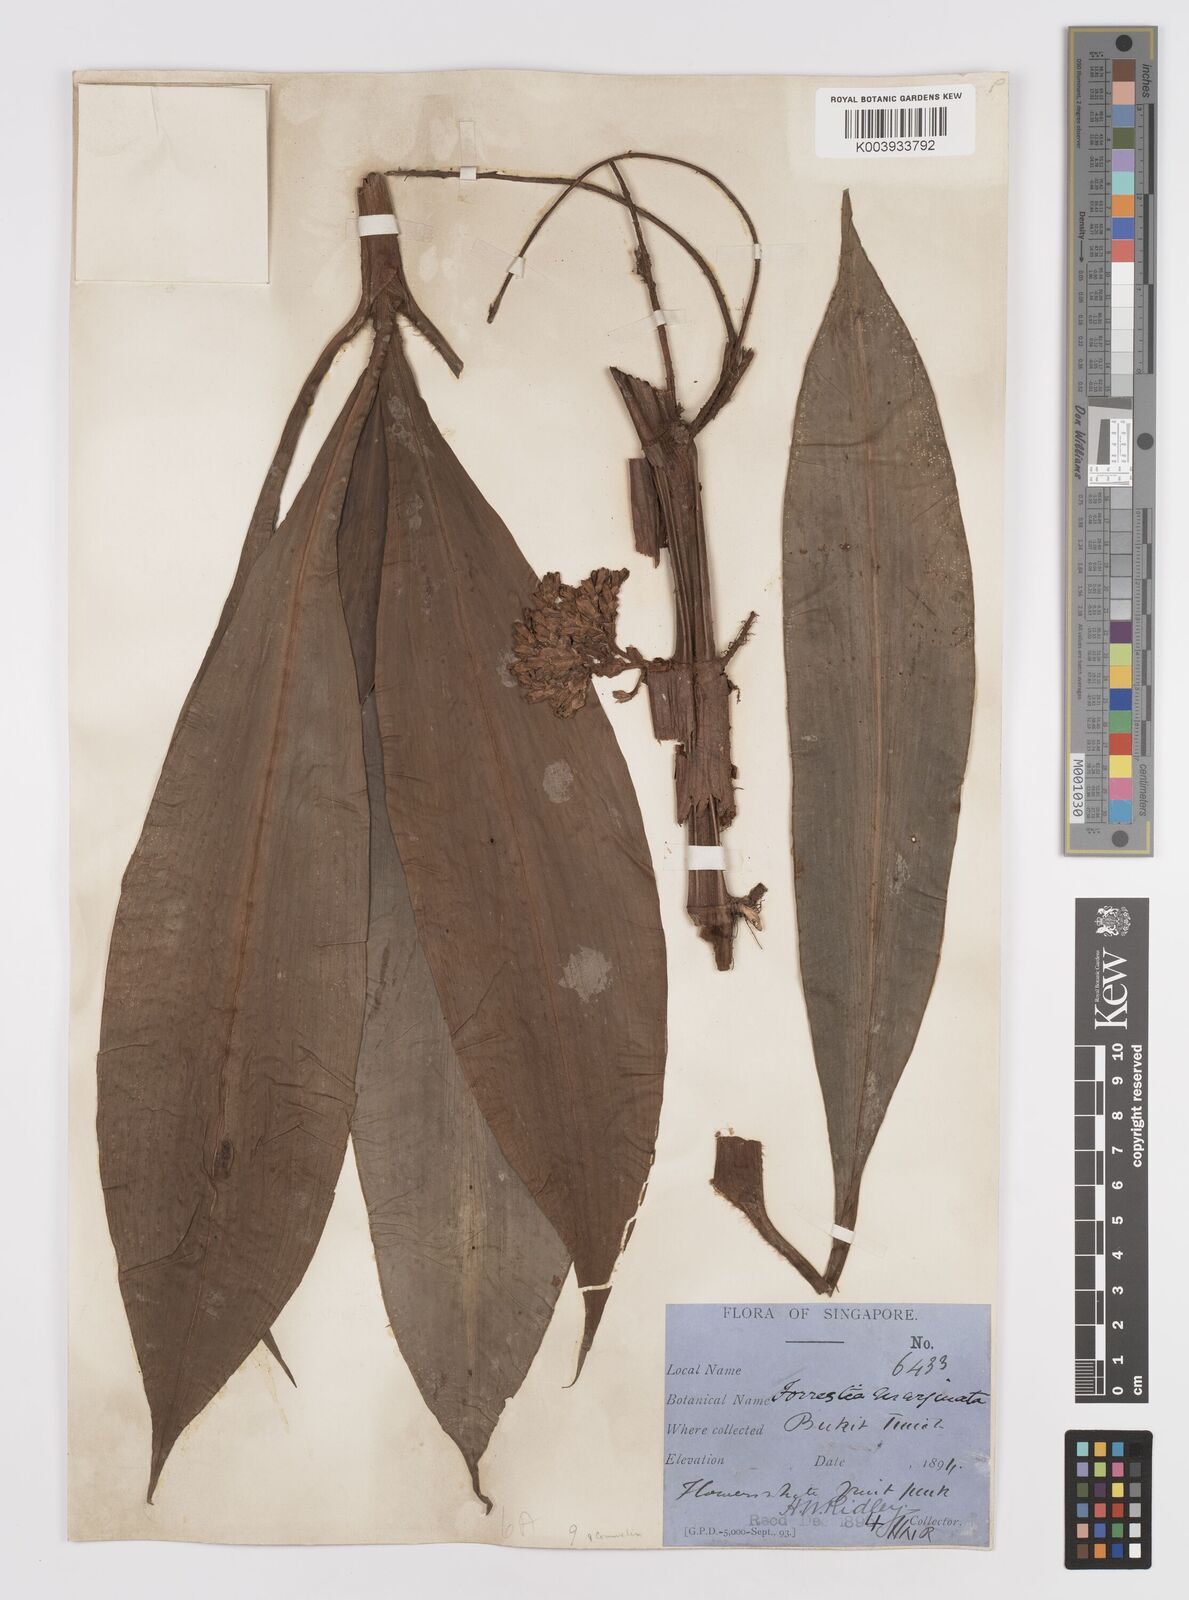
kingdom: Plantae
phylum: Tracheophyta
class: Liliopsida
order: Commelinales
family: Commelinaceae
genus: Amischotolype
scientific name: Amischotolype marginata
